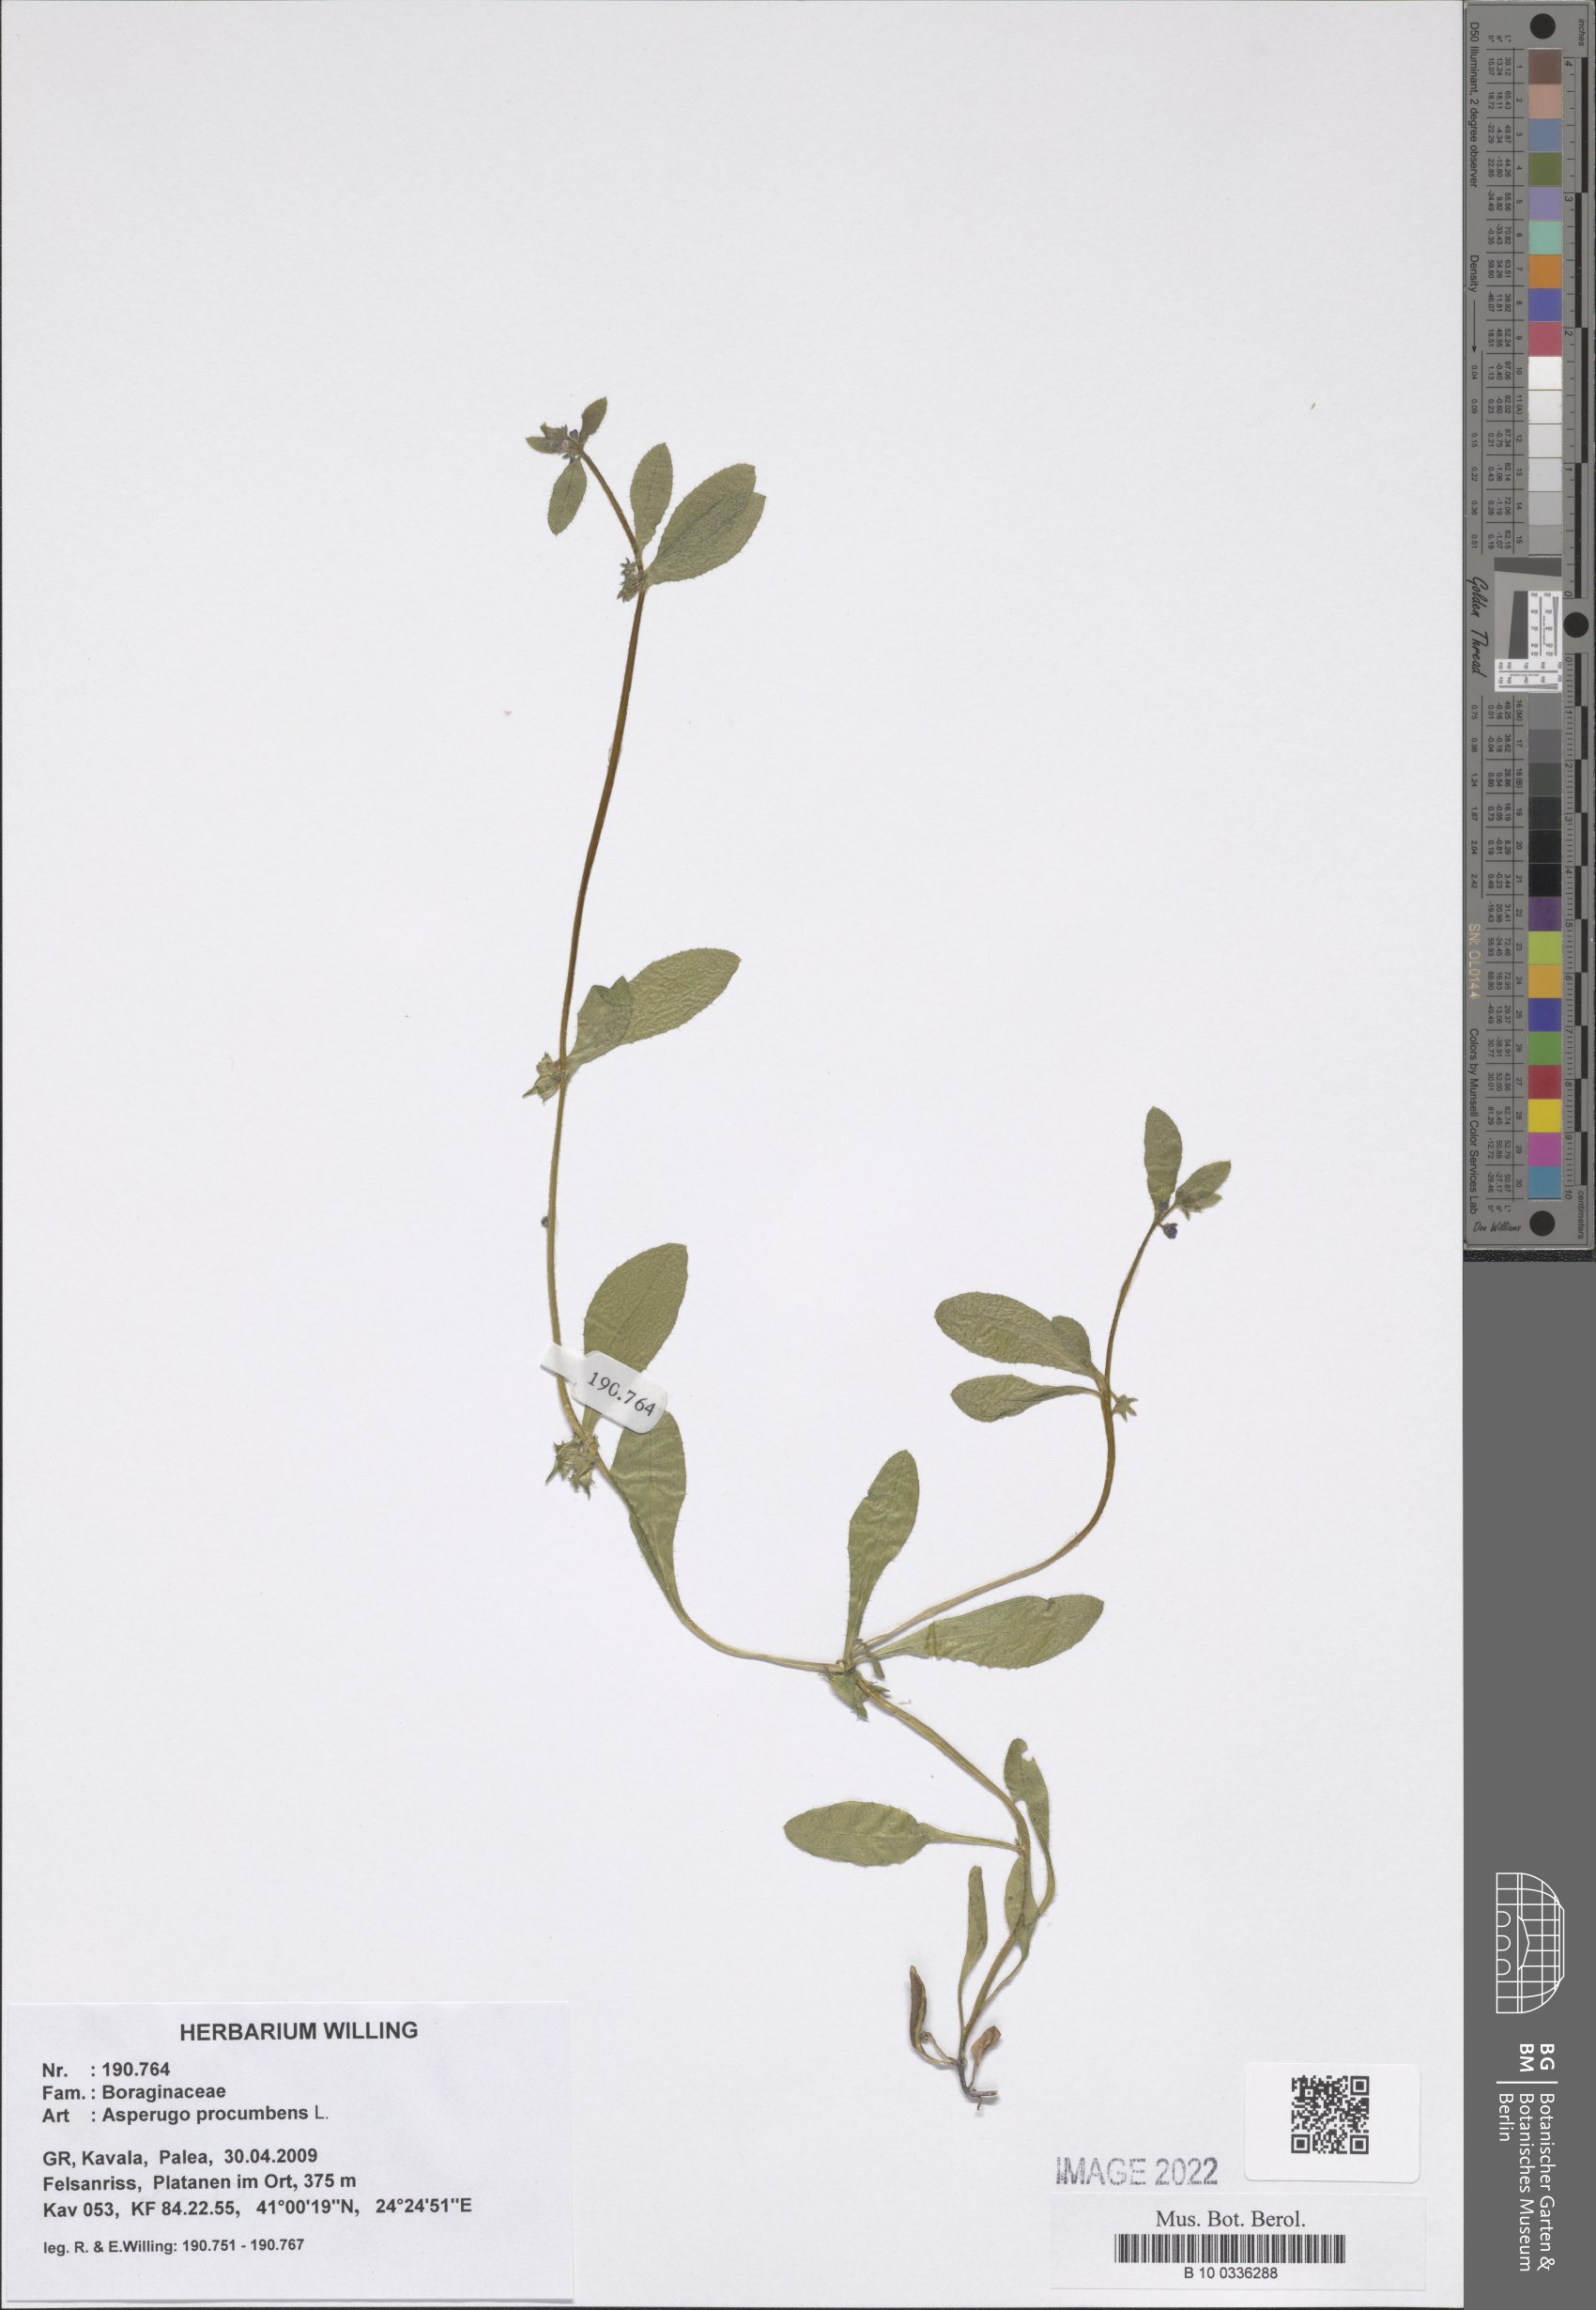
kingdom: Plantae
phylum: Tracheophyta
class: Magnoliopsida
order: Boraginales
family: Boraginaceae
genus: Asperugo
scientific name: Asperugo procumbens
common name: Madwort
